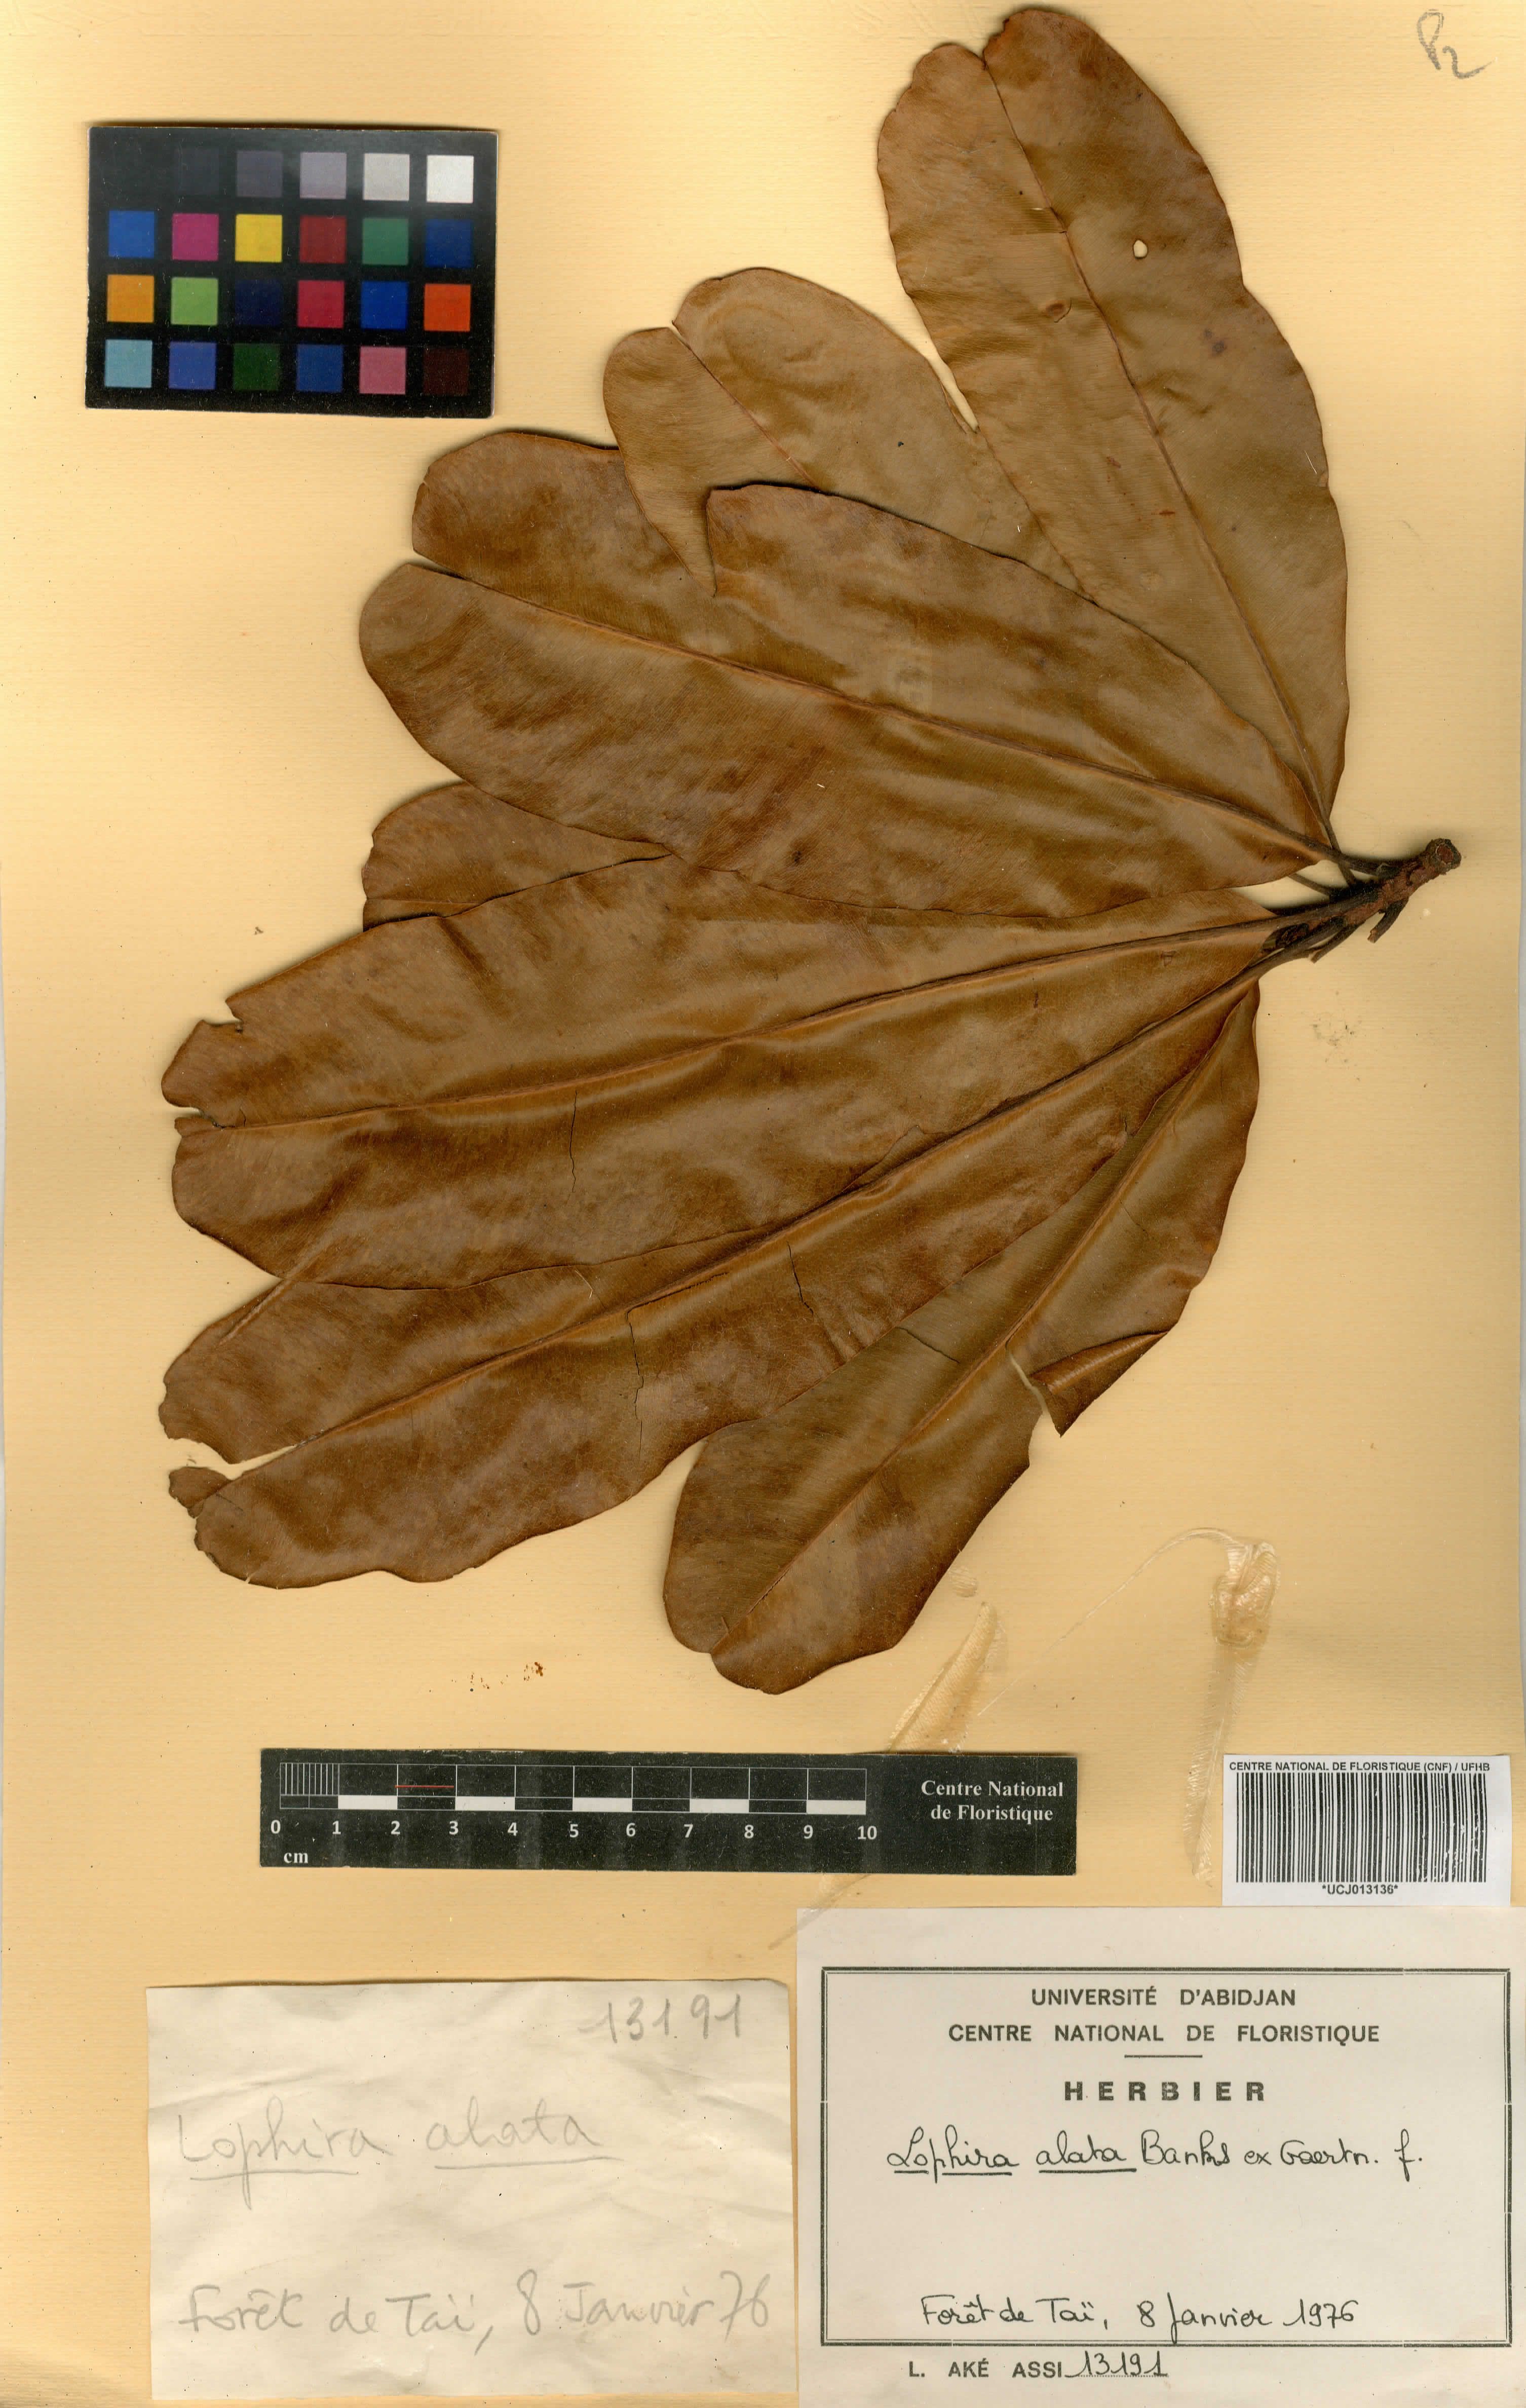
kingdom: Plantae
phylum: Tracheophyta
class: Magnoliopsida
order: Malpighiales
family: Ochnaceae
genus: Lophira
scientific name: Lophira alata
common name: Azobe
